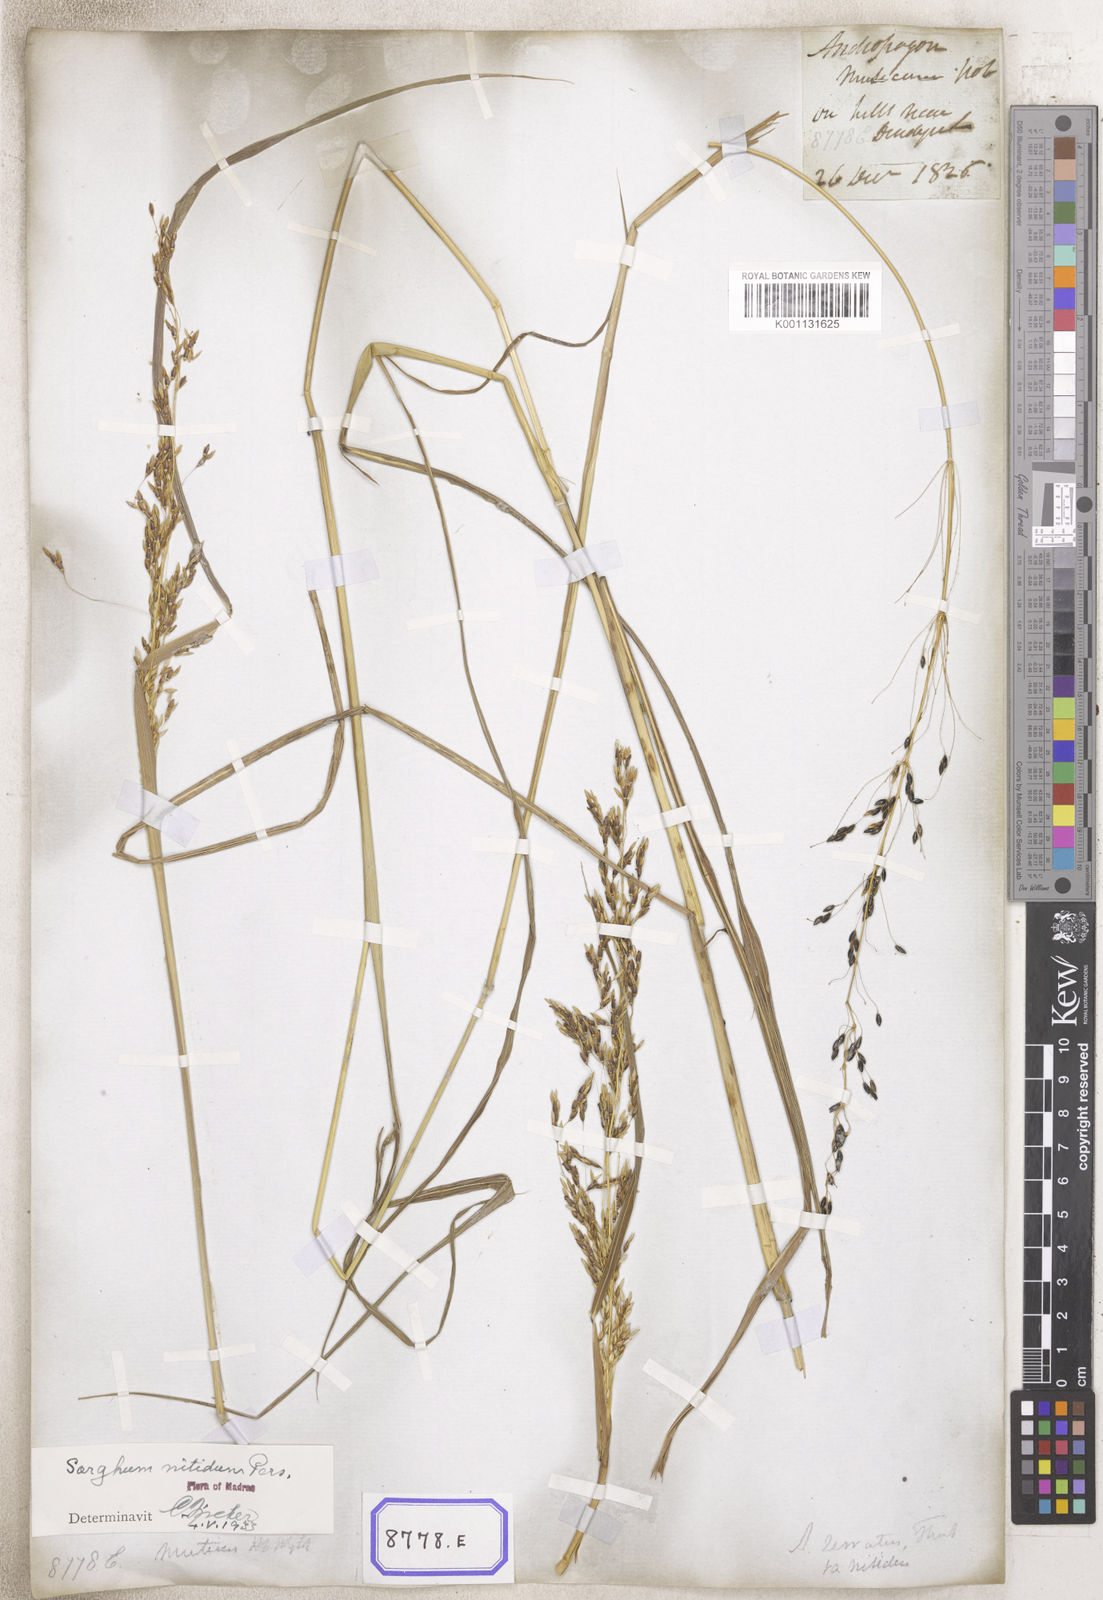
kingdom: Plantae
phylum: Tracheophyta
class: Liliopsida
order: Poales
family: Poaceae
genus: Sorghum
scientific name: Sorghum halepense
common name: Johnson-grass
